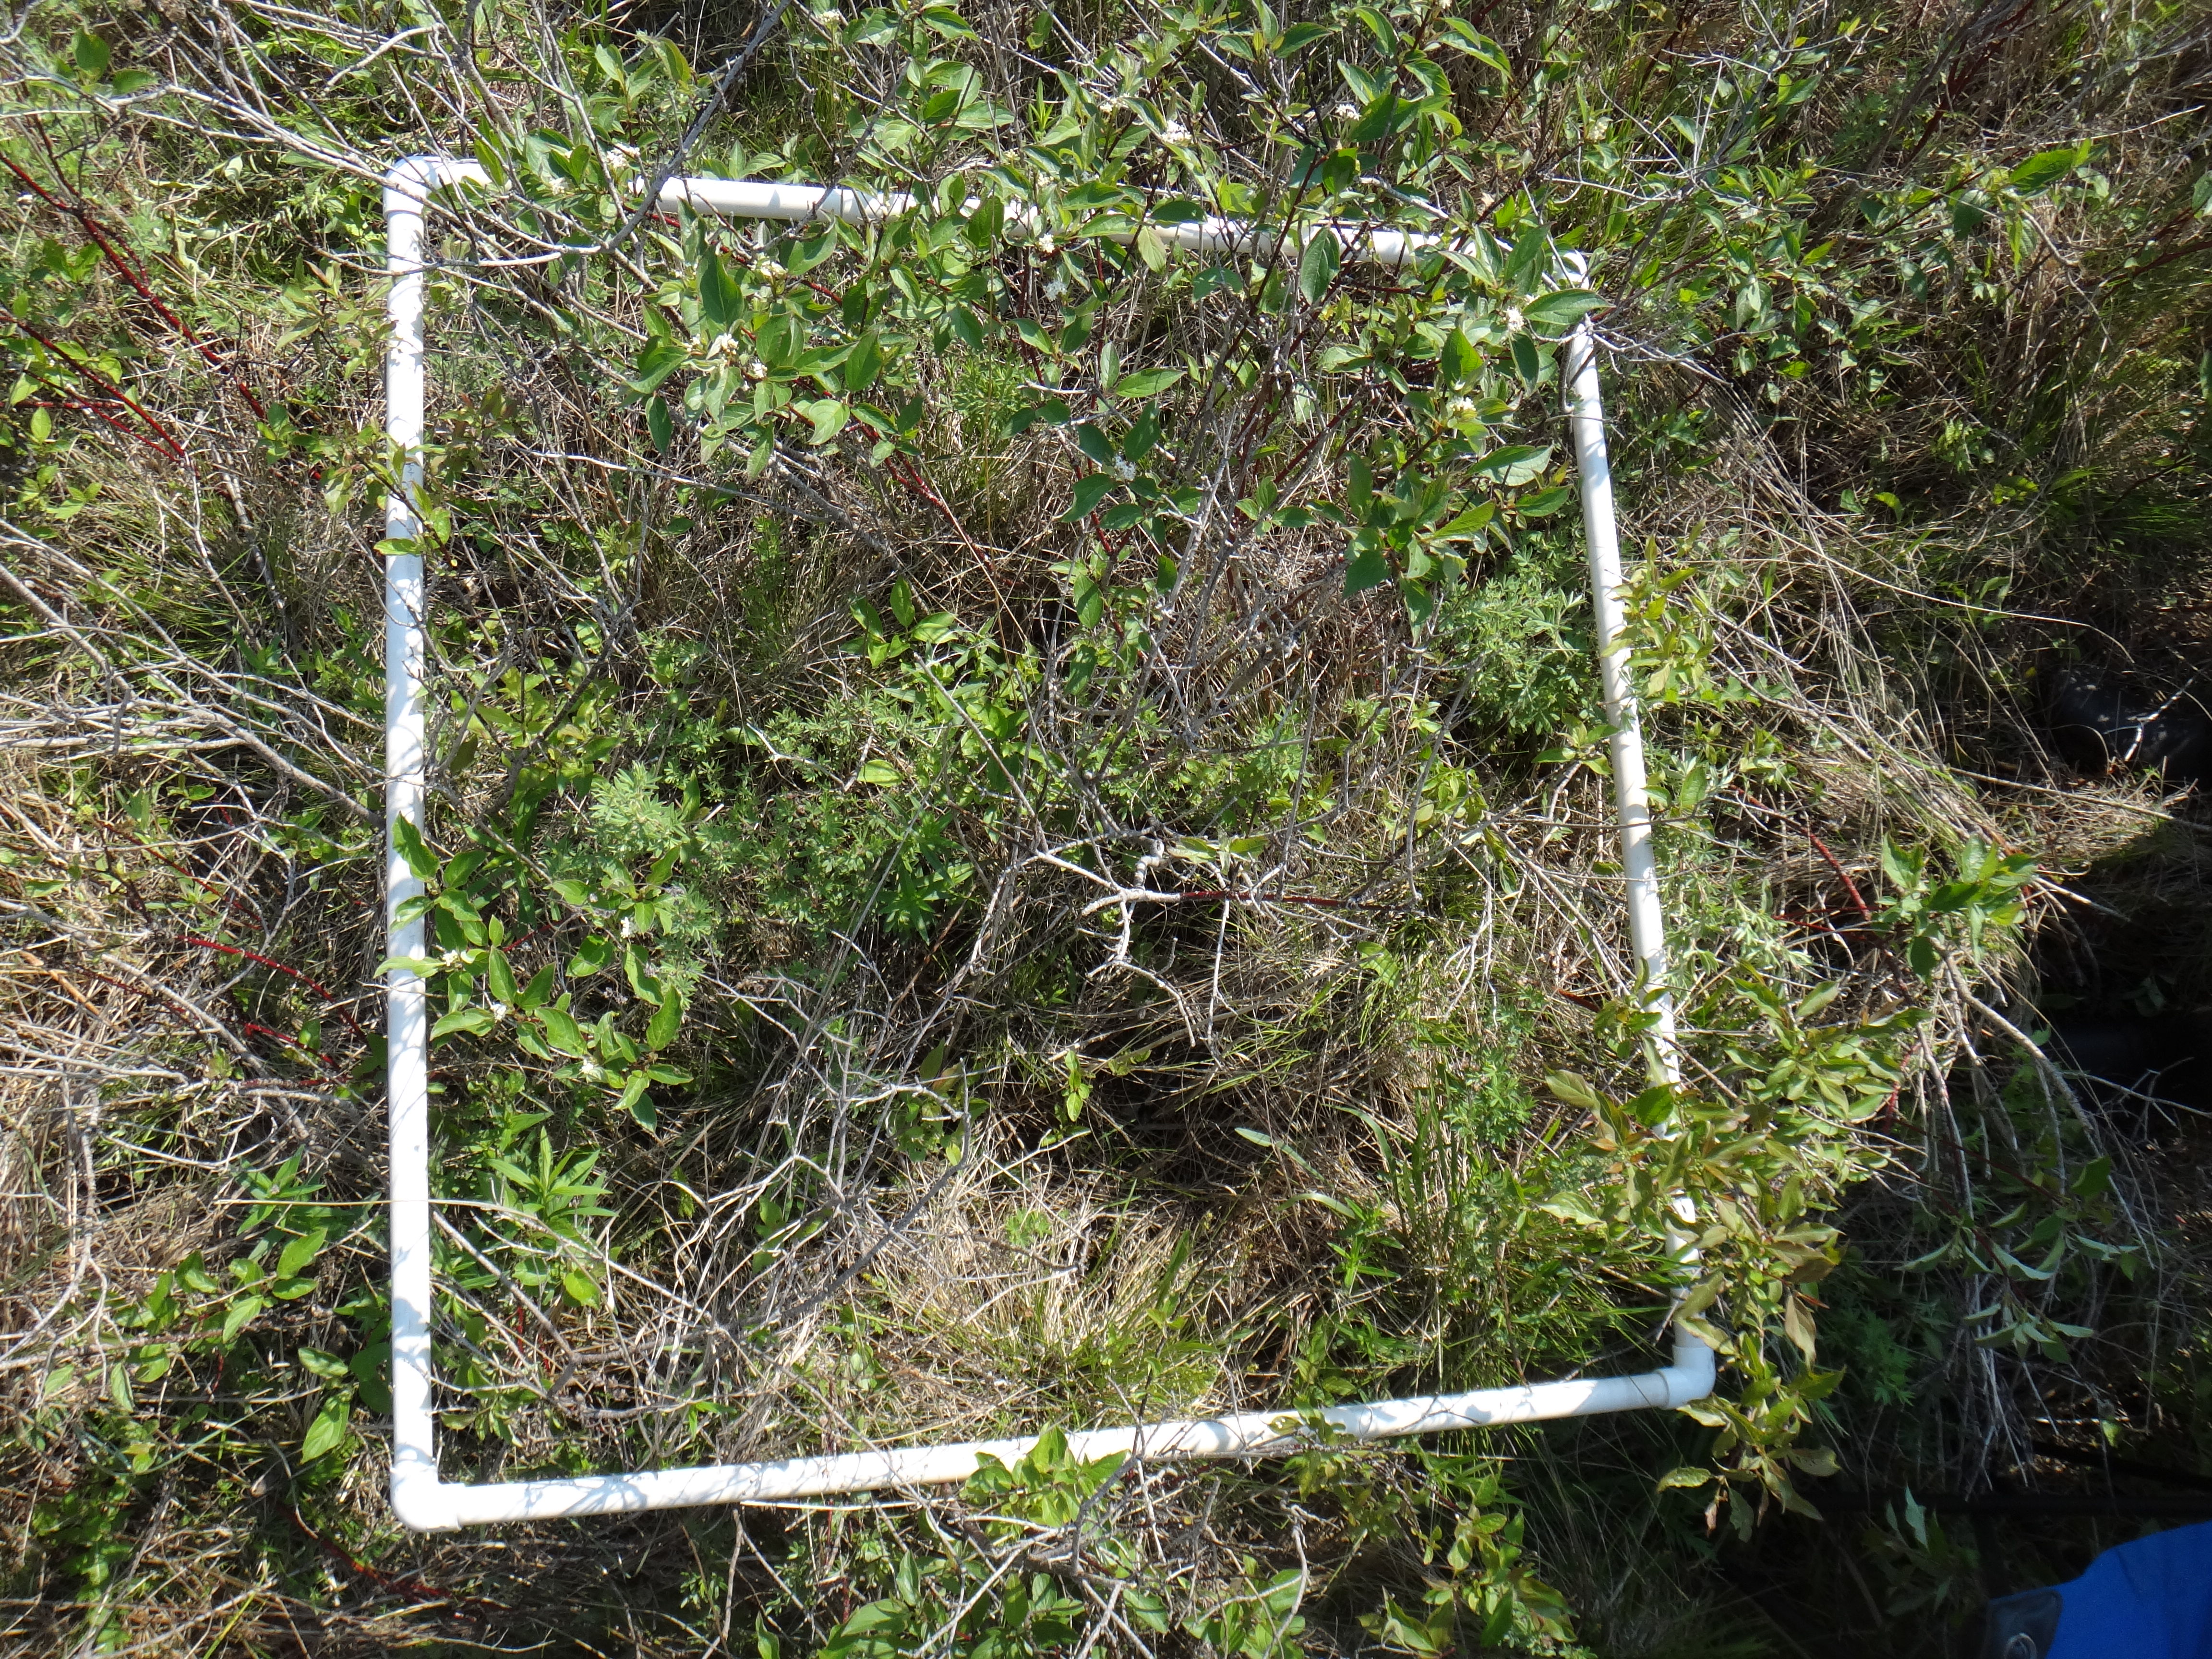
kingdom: Plantae
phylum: Tracheophyta
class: Magnoliopsida
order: Rosales
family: Rosaceae
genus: Dasiphora
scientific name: Dasiphora fruticosa
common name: Shrubby cinquefoil
